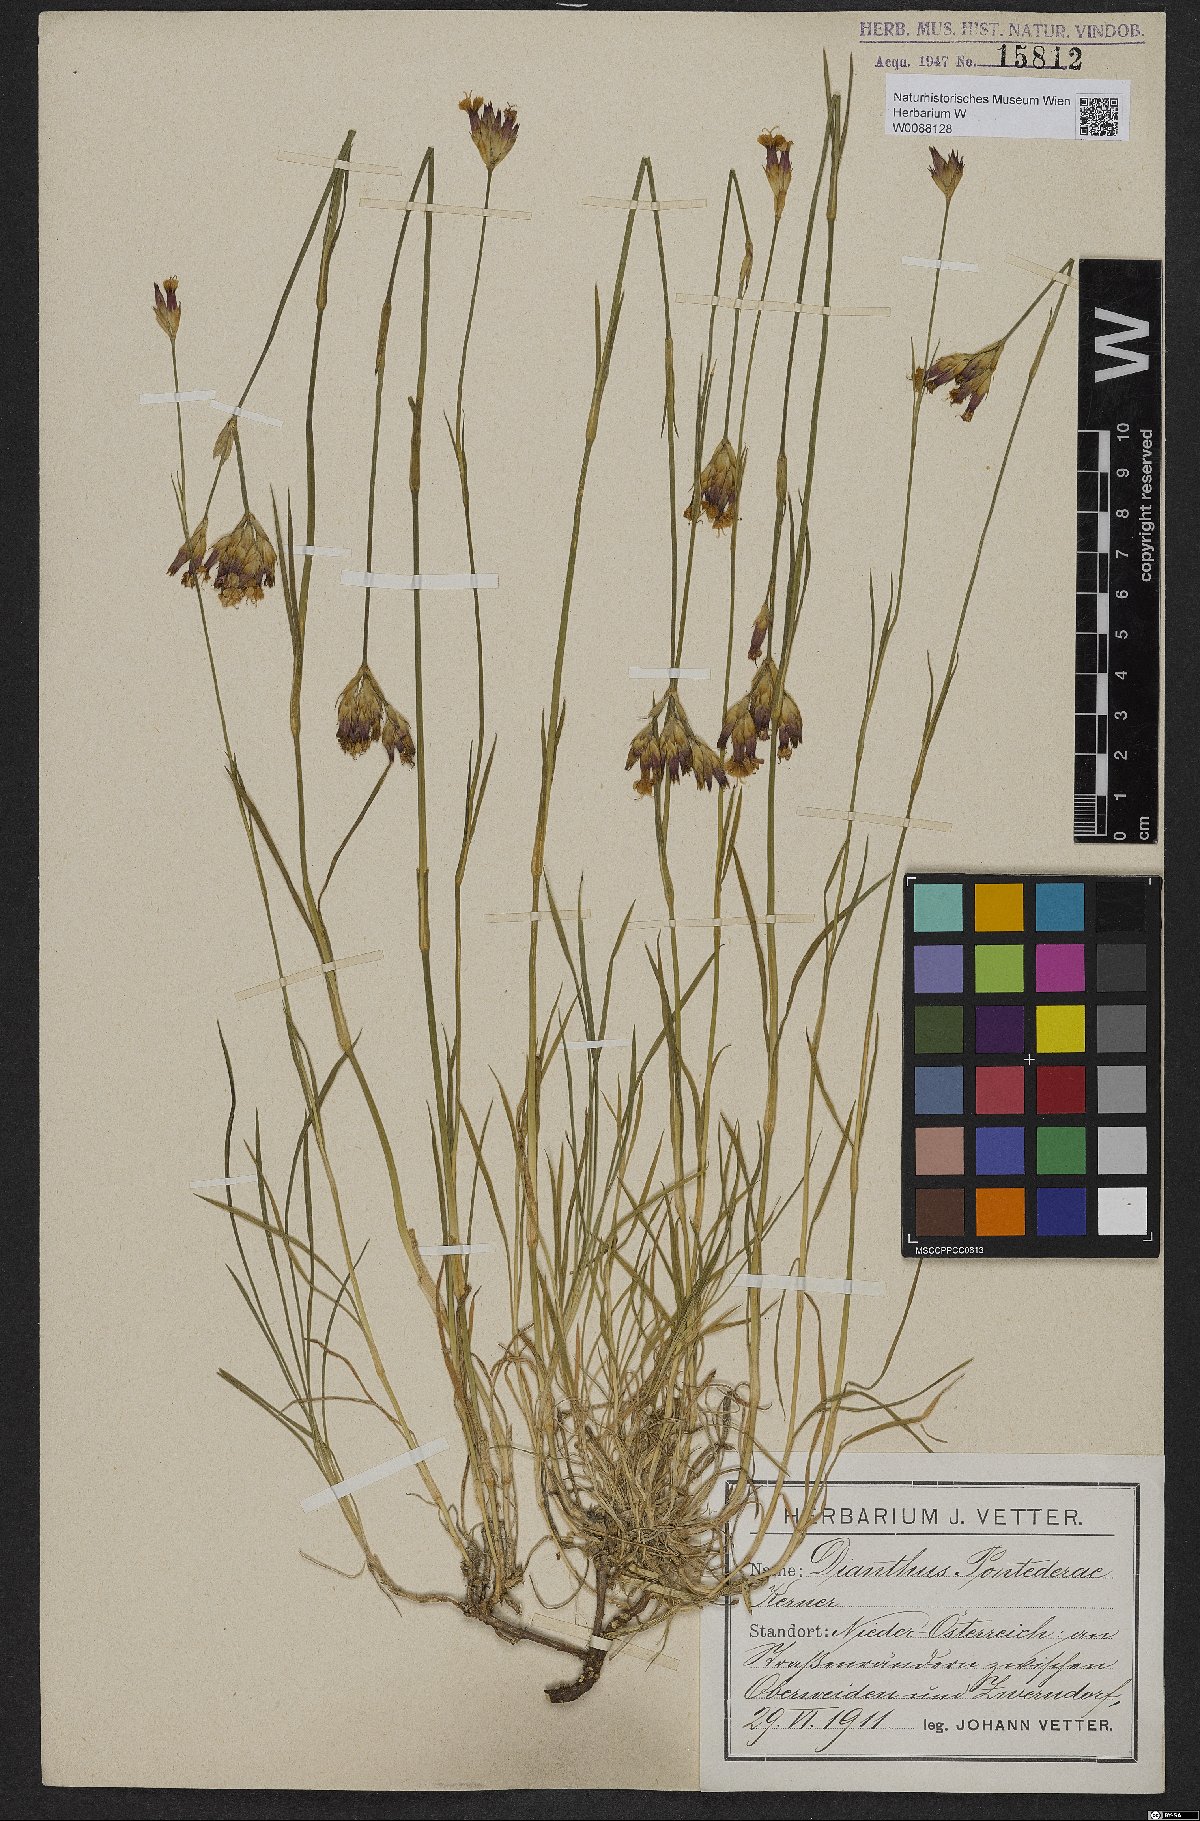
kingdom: Plantae
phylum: Tracheophyta
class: Magnoliopsida
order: Caryophyllales
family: Caryophyllaceae
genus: Dianthus
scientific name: Dianthus pontederae
